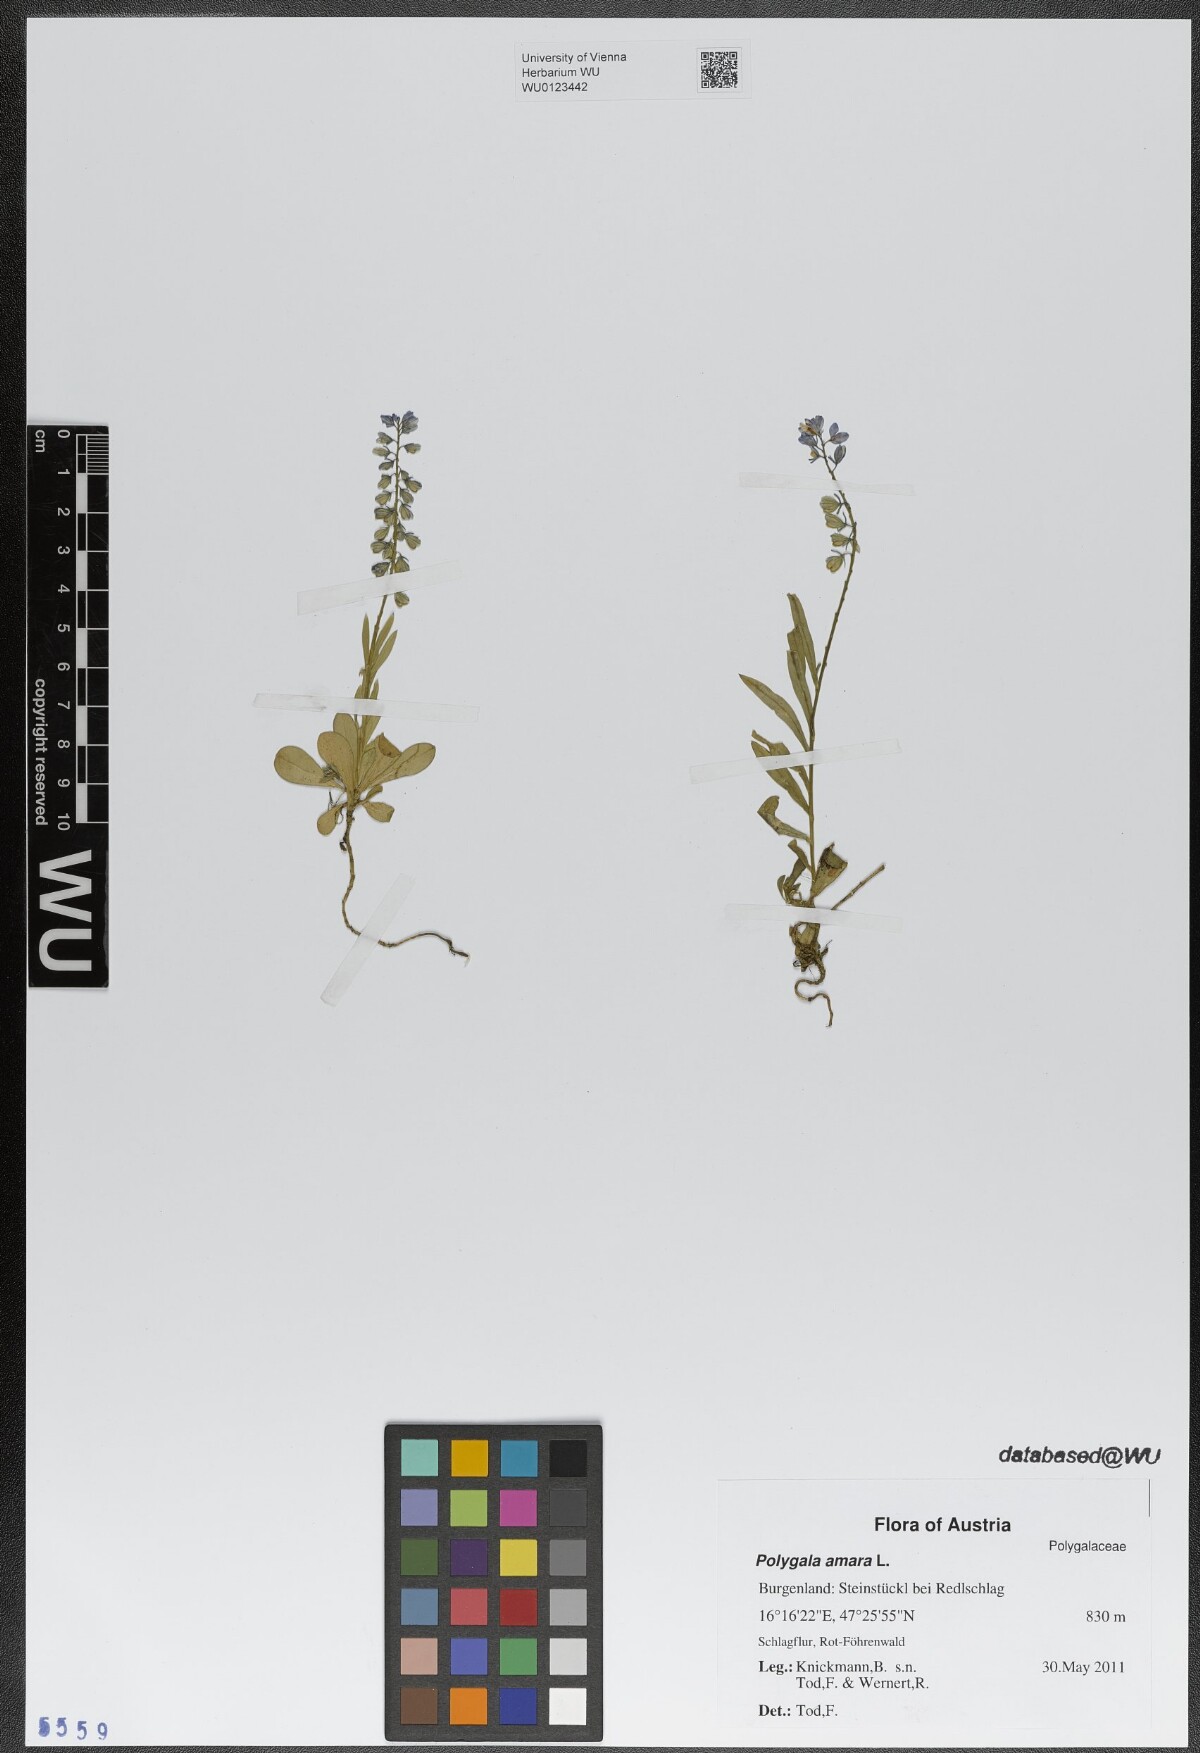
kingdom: Plantae
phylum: Tracheophyta
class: Magnoliopsida
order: Fabales
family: Polygalaceae
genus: Polygala
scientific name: Polygala amara
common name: Milkwort
